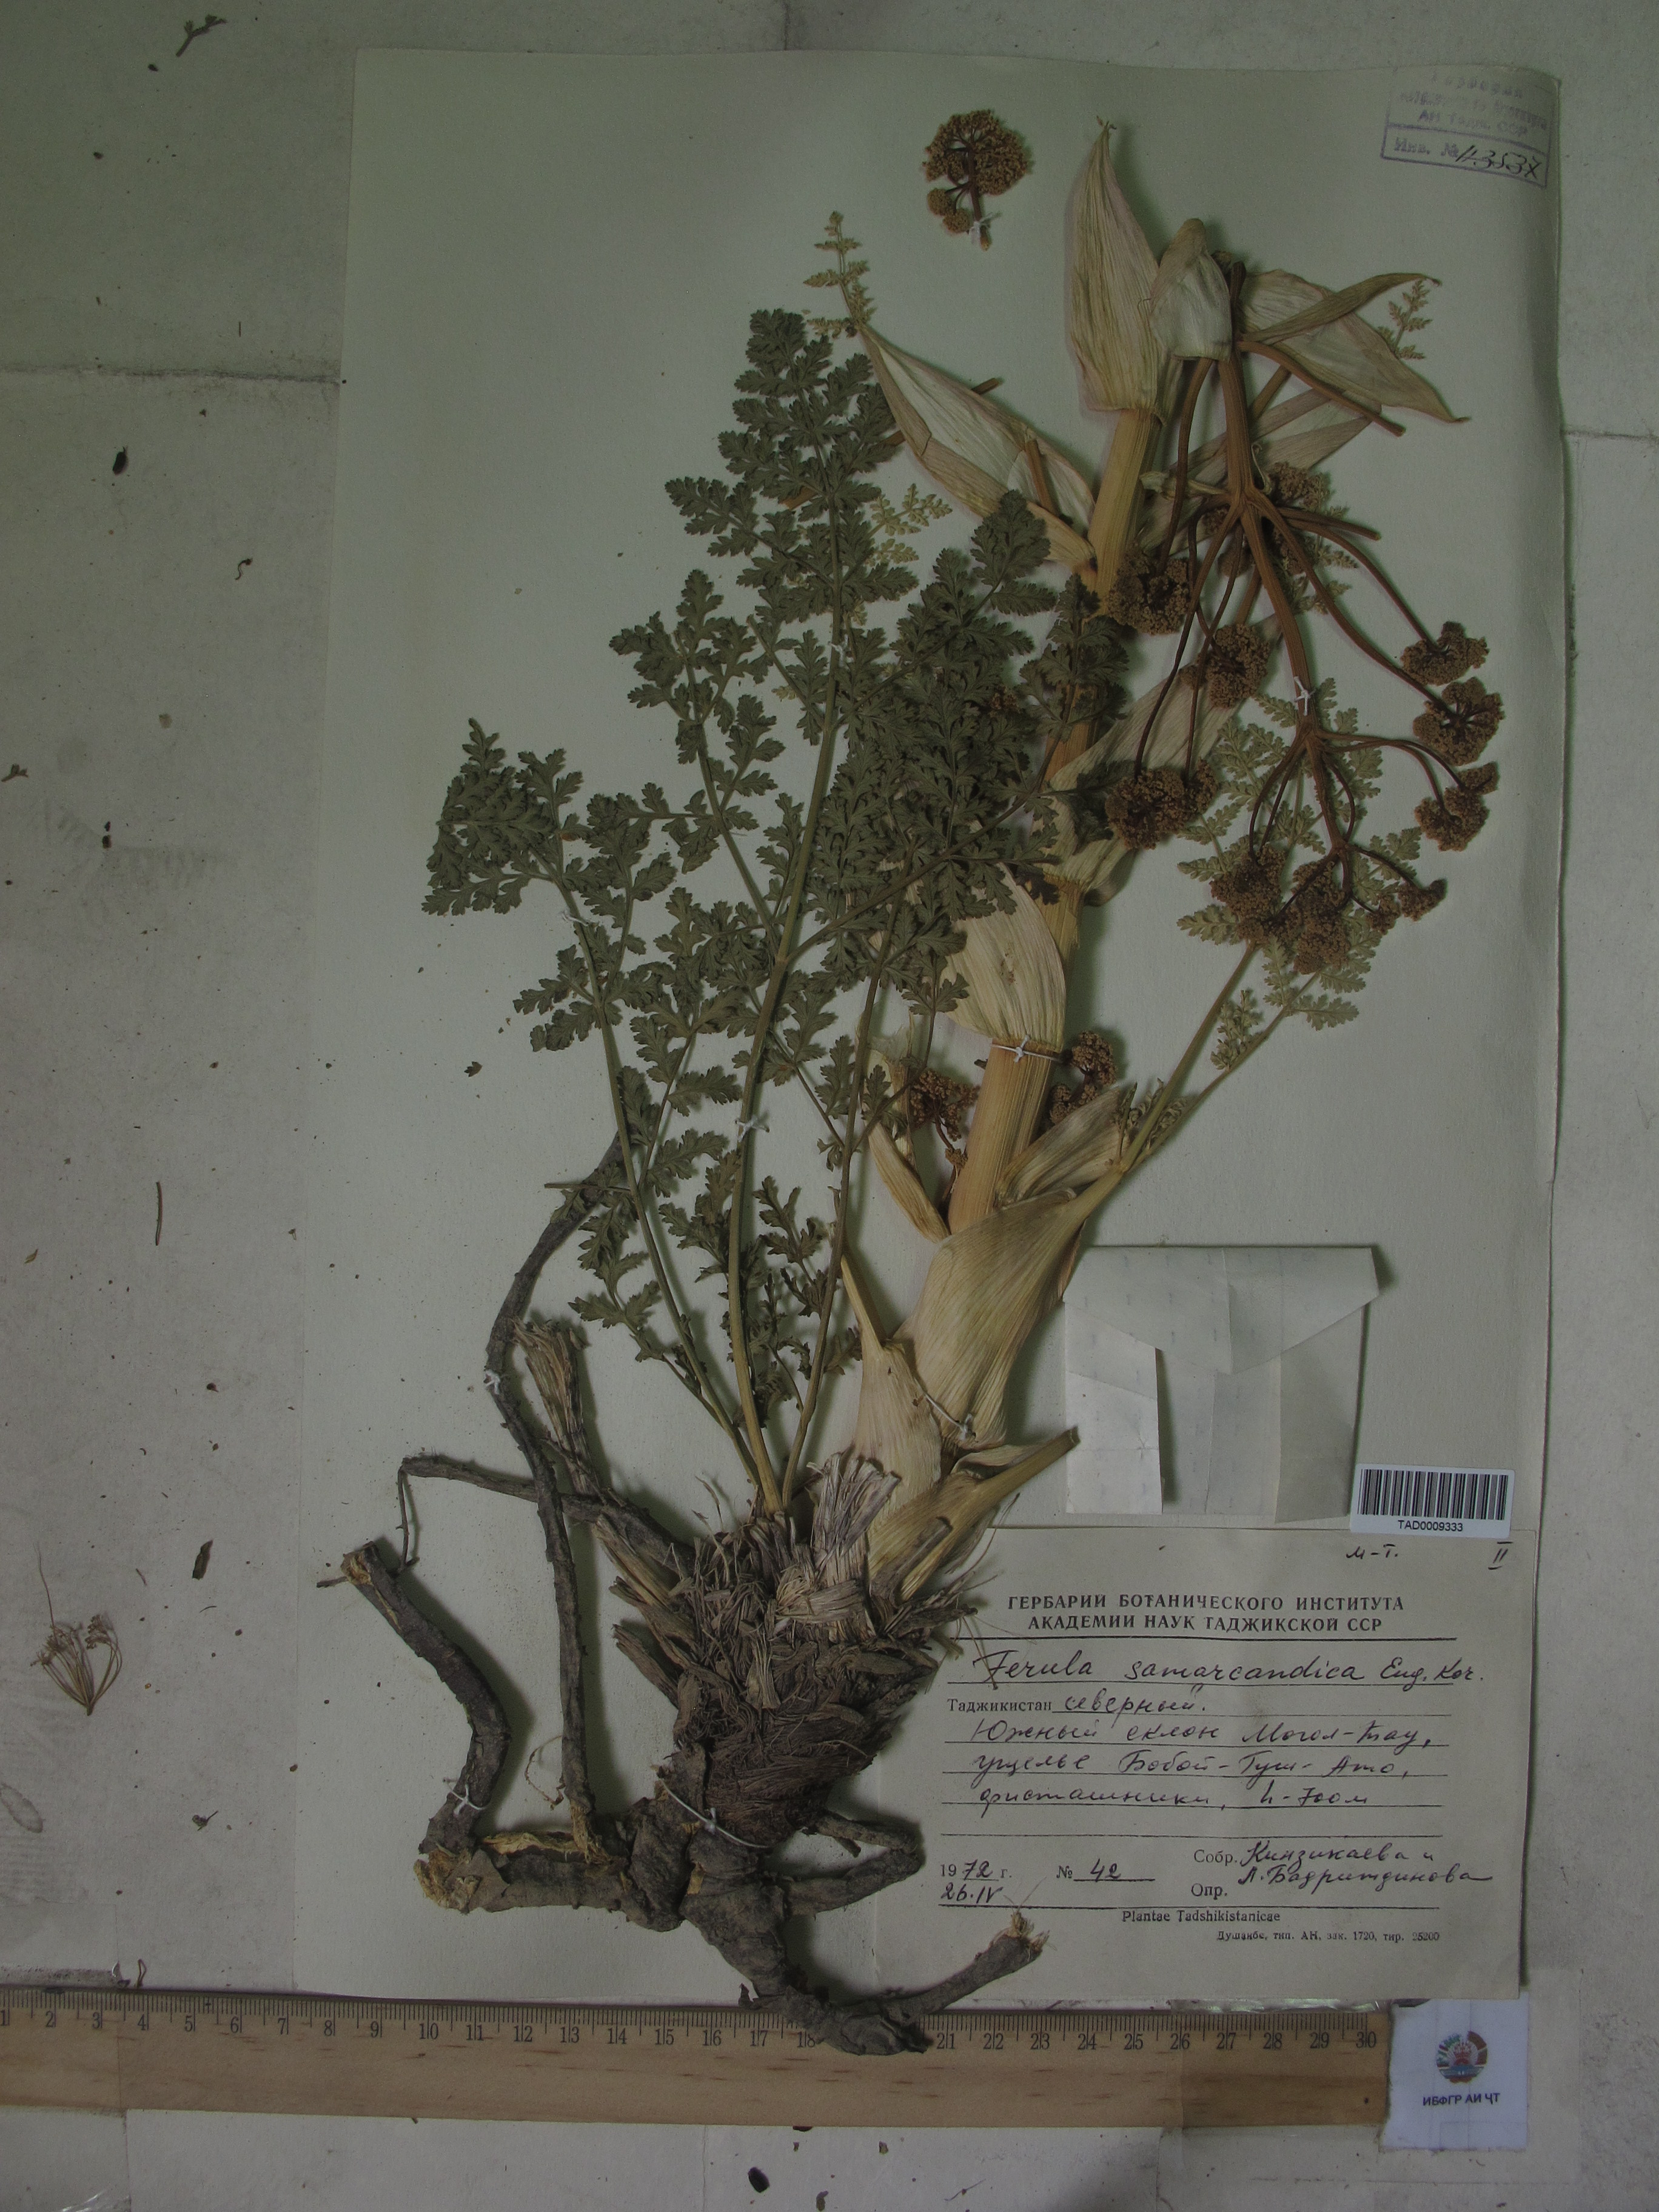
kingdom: Plantae
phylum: Tracheophyta
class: Magnoliopsida
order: Apiales
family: Apiaceae
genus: Ferula
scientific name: Ferula samarkandica
